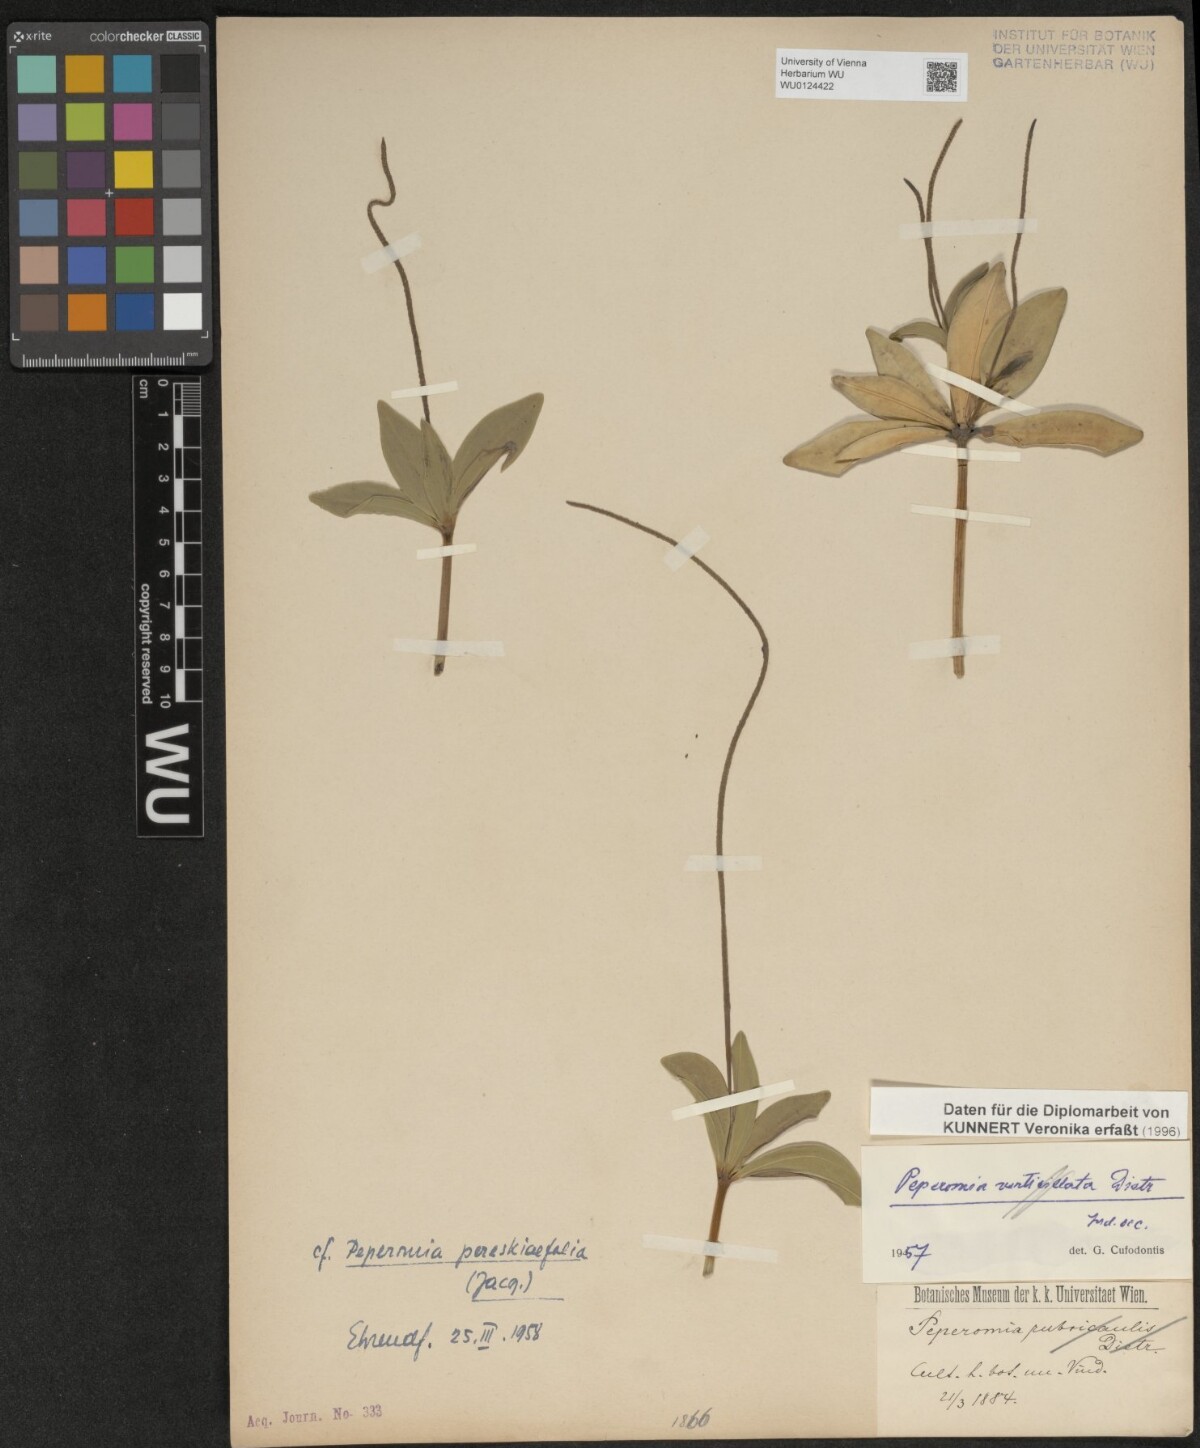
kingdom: Plantae
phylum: Tracheophyta
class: Magnoliopsida
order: Piperales
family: Piperaceae
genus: Peperomia
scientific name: Peperomia pereskiifolia
